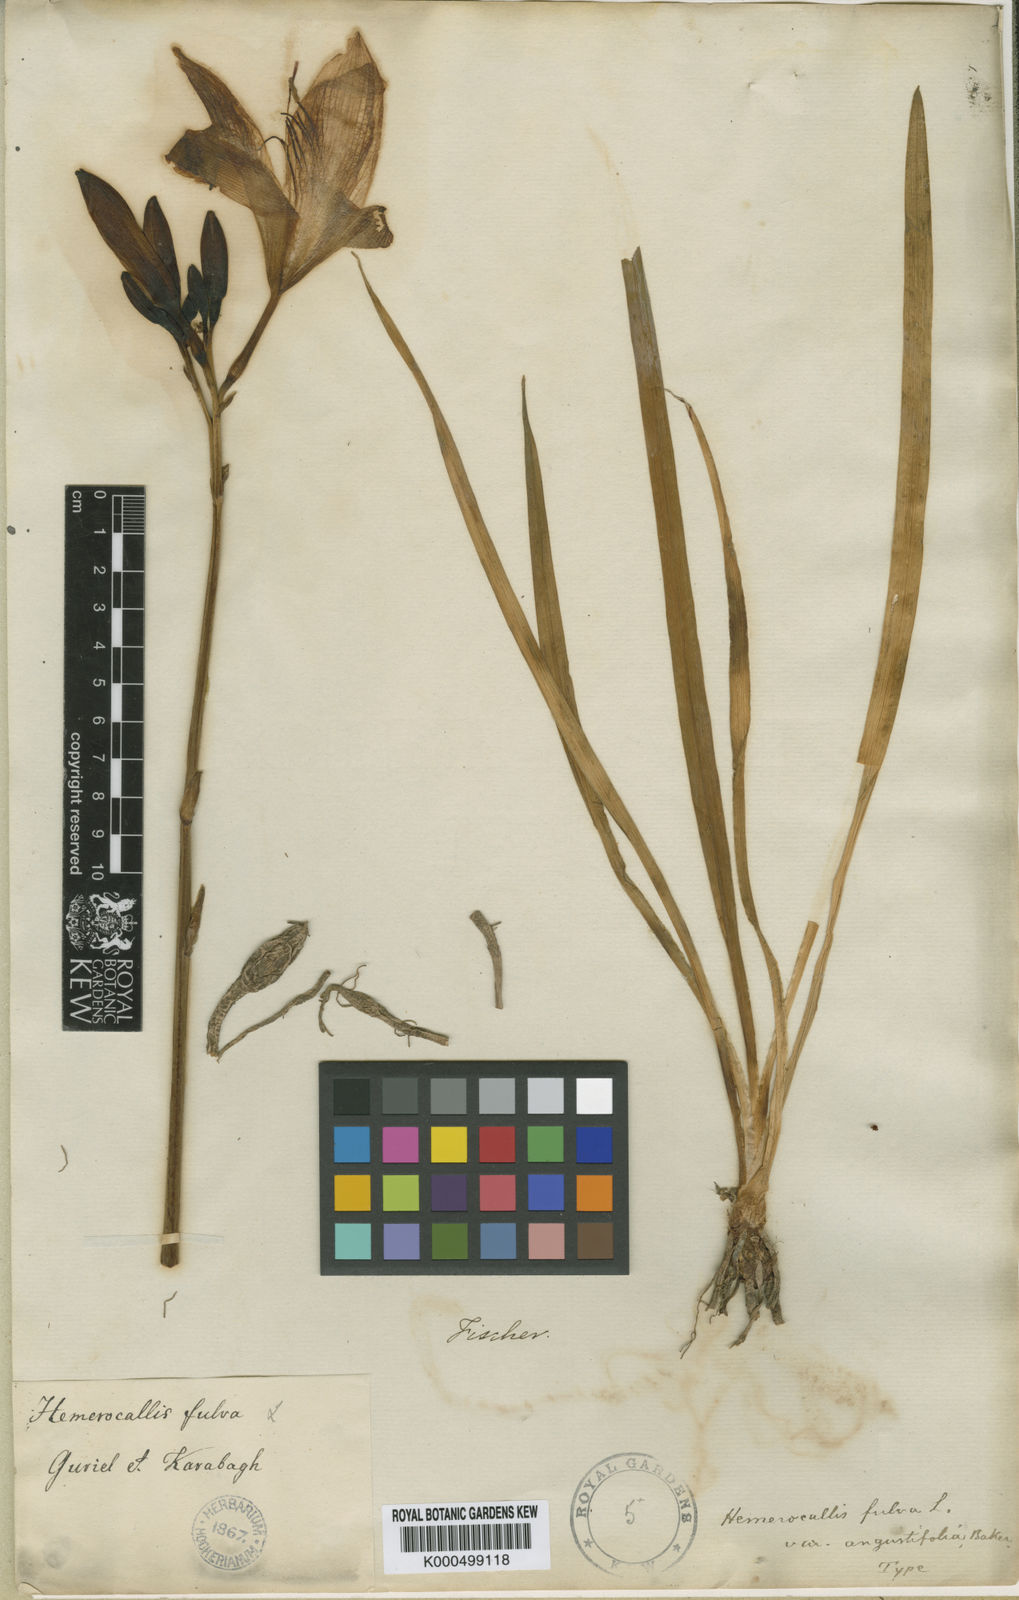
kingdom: Plantae
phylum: Tracheophyta
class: Liliopsida
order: Asparagales
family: Asphodelaceae
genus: Hemerocallis
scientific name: Hemerocallis fulva
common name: Orange day-lily
